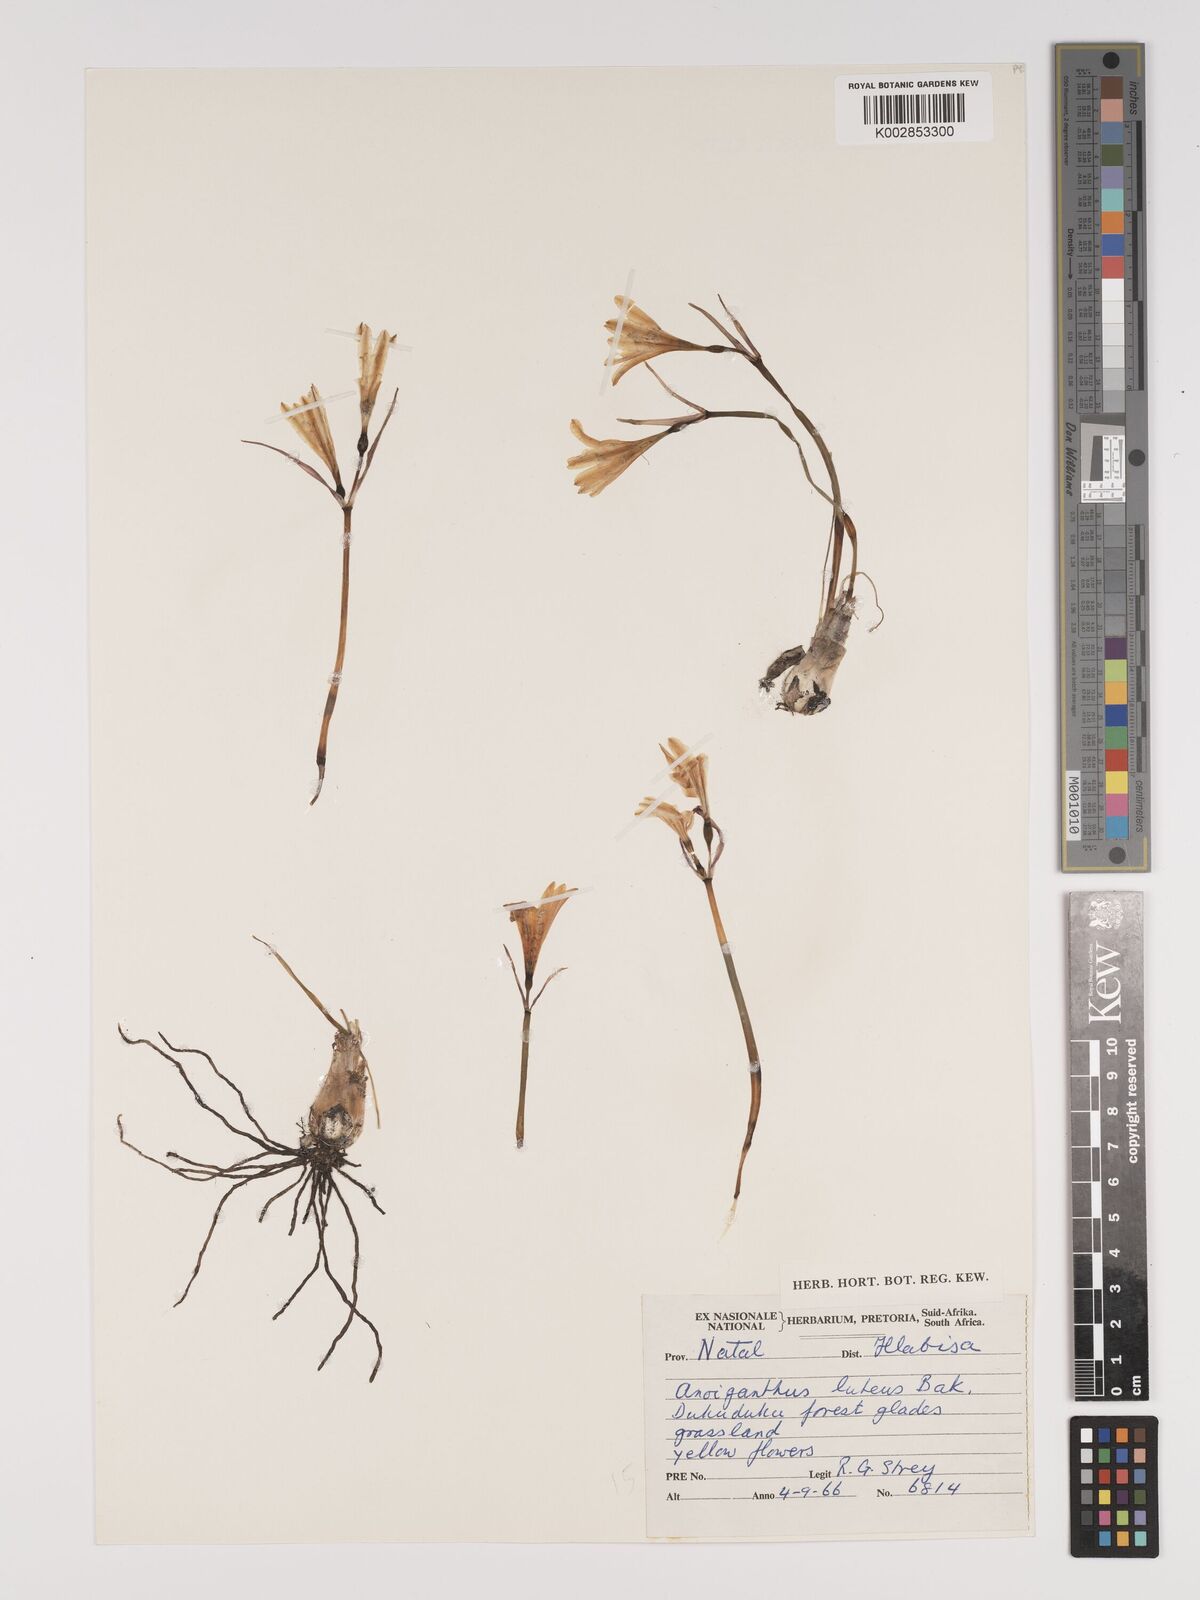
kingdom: Plantae
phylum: Tracheophyta
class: Liliopsida
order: Asparagales
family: Amaryllidaceae
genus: Cyrtanthus
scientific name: Cyrtanthus breviflorus
